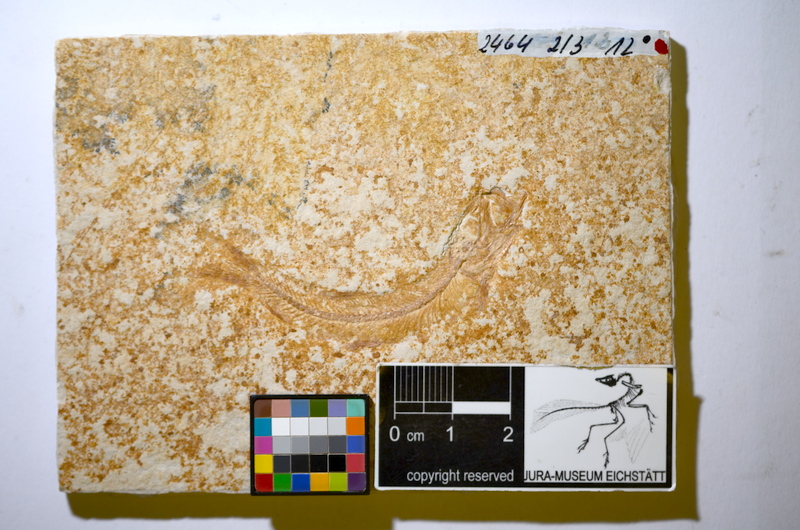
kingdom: Animalia
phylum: Chordata
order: Salmoniformes
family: Orthogonikleithridae
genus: Leptolepides
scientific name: Leptolepides sprattiformis
